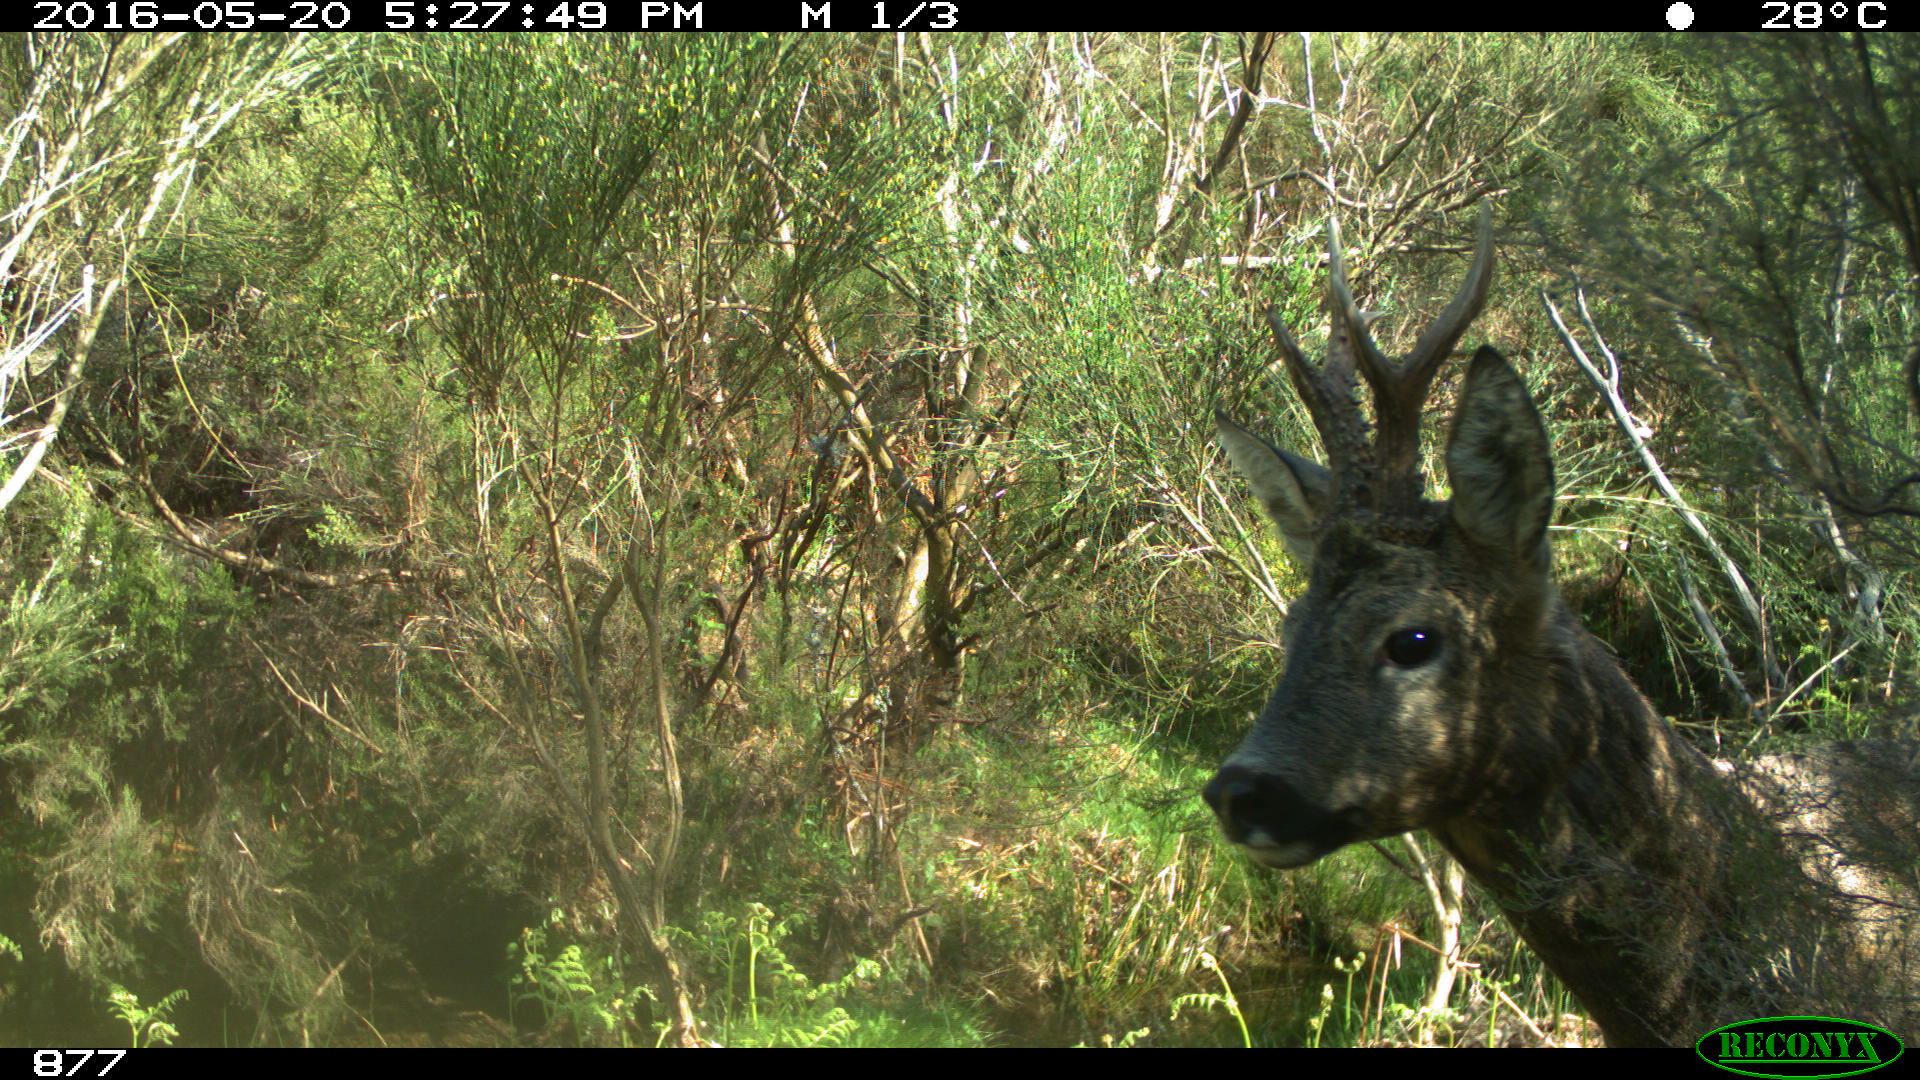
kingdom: Animalia
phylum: Chordata
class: Mammalia
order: Artiodactyla
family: Cervidae
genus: Capreolus
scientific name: Capreolus capreolus
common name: Western roe deer
